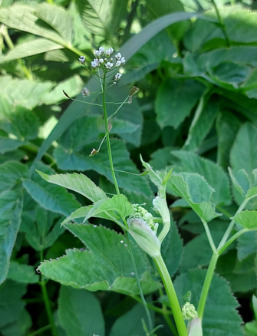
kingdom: Plantae
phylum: Tracheophyta
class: Magnoliopsida
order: Brassicales
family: Brassicaceae
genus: Capsella
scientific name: Capsella bursa-pastoris
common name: Hyrdetaske
